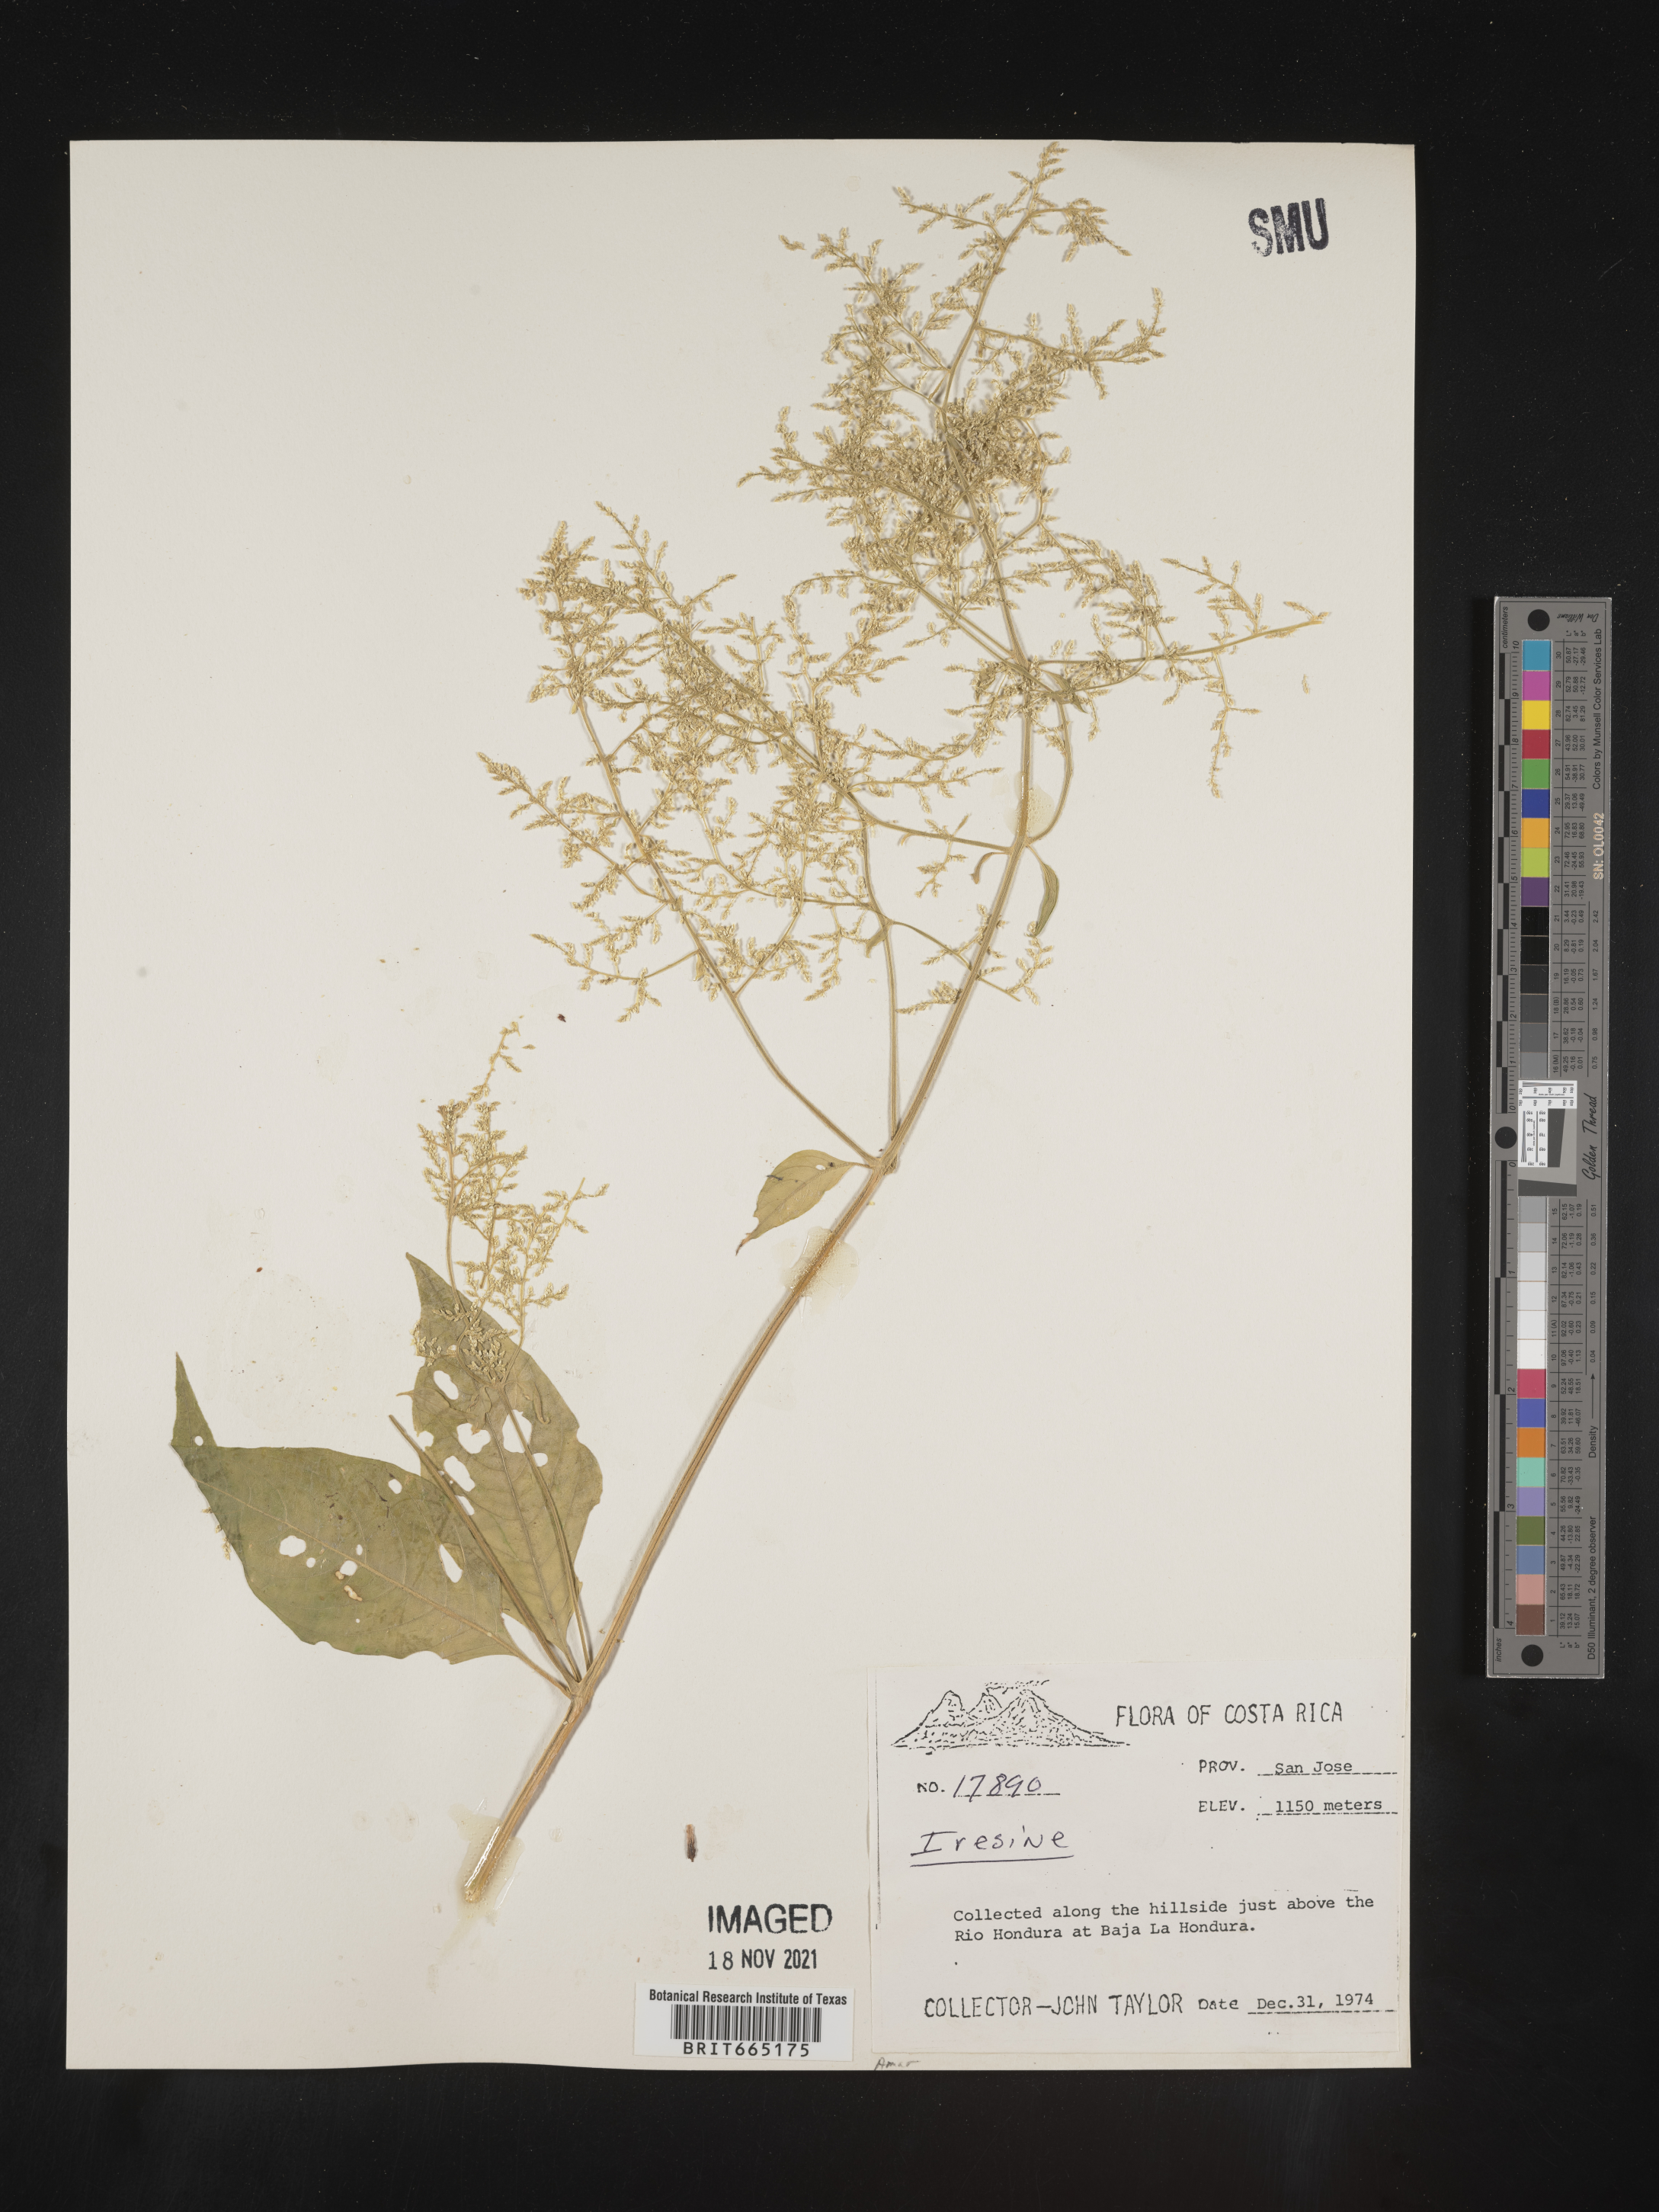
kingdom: Plantae
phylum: Tracheophyta
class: Magnoliopsida
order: Caryophyllales
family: Amaranthaceae
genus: Iresine
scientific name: Iresine
